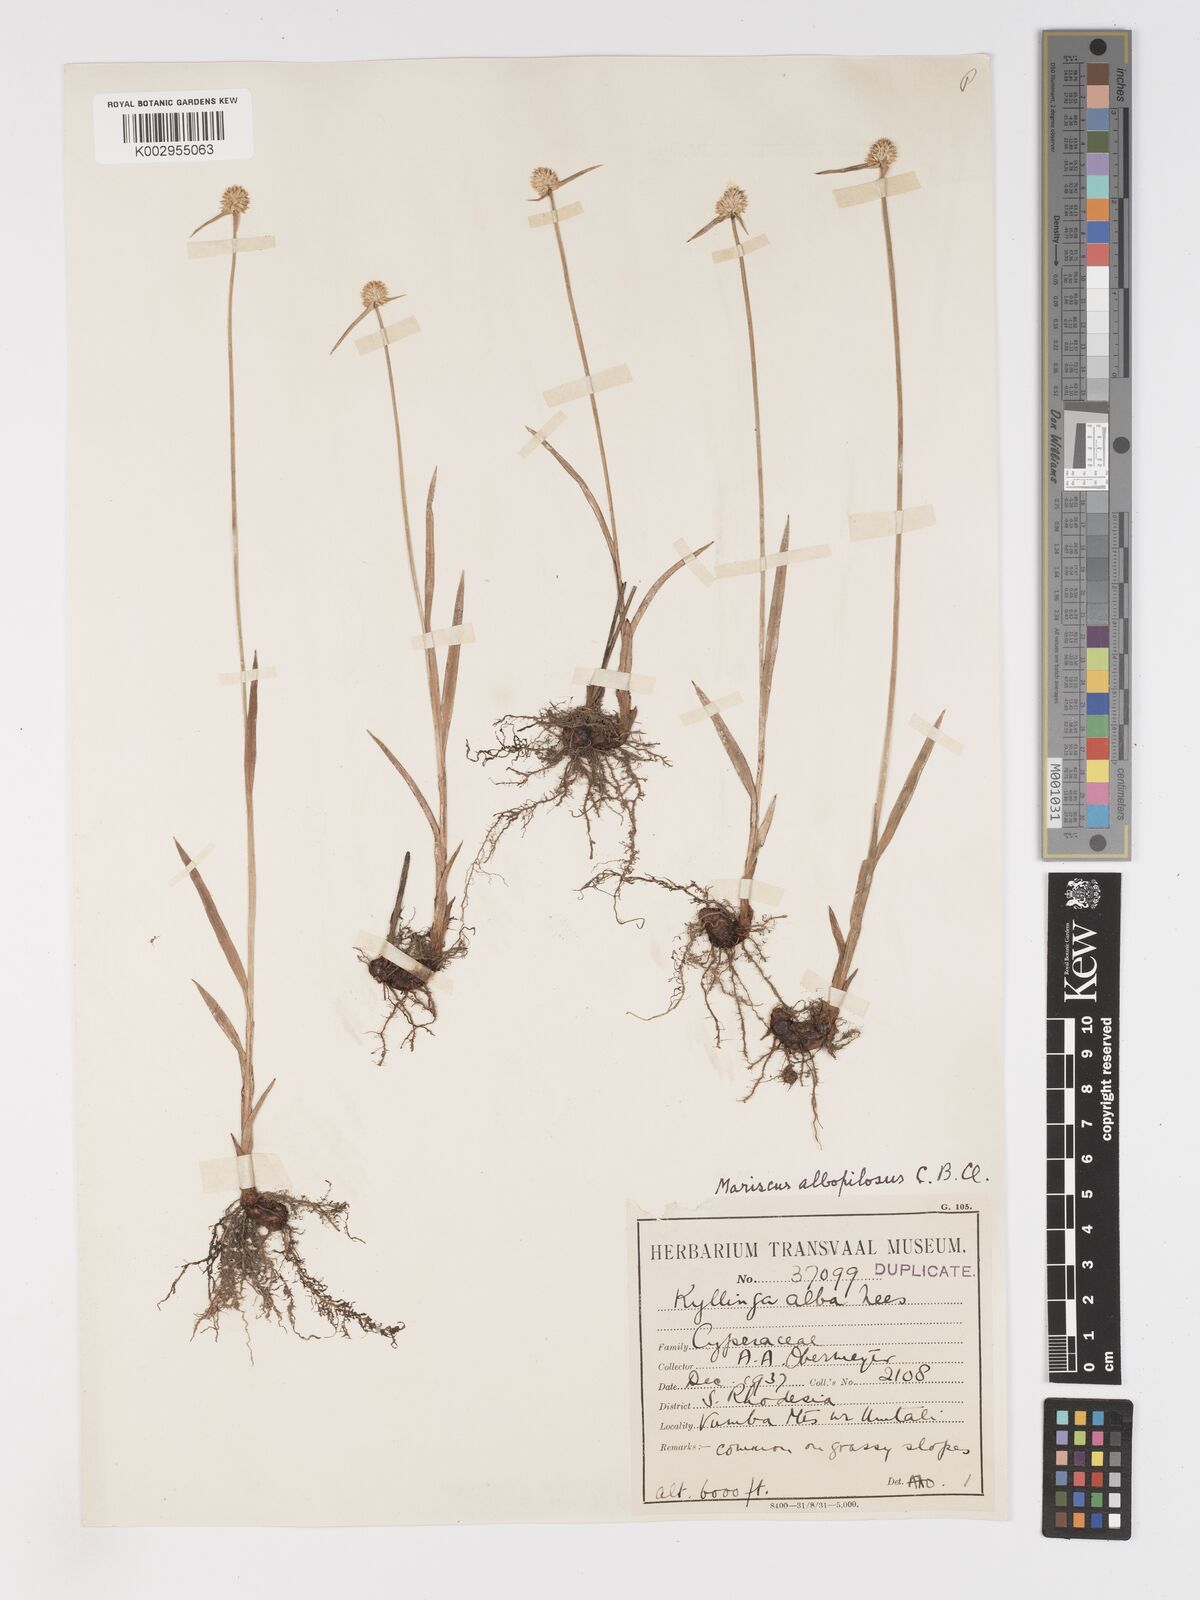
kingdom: Plantae
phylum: Tracheophyta
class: Liliopsida
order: Poales
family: Cyperaceae
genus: Cyperus
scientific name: Cyperus albopilosus
